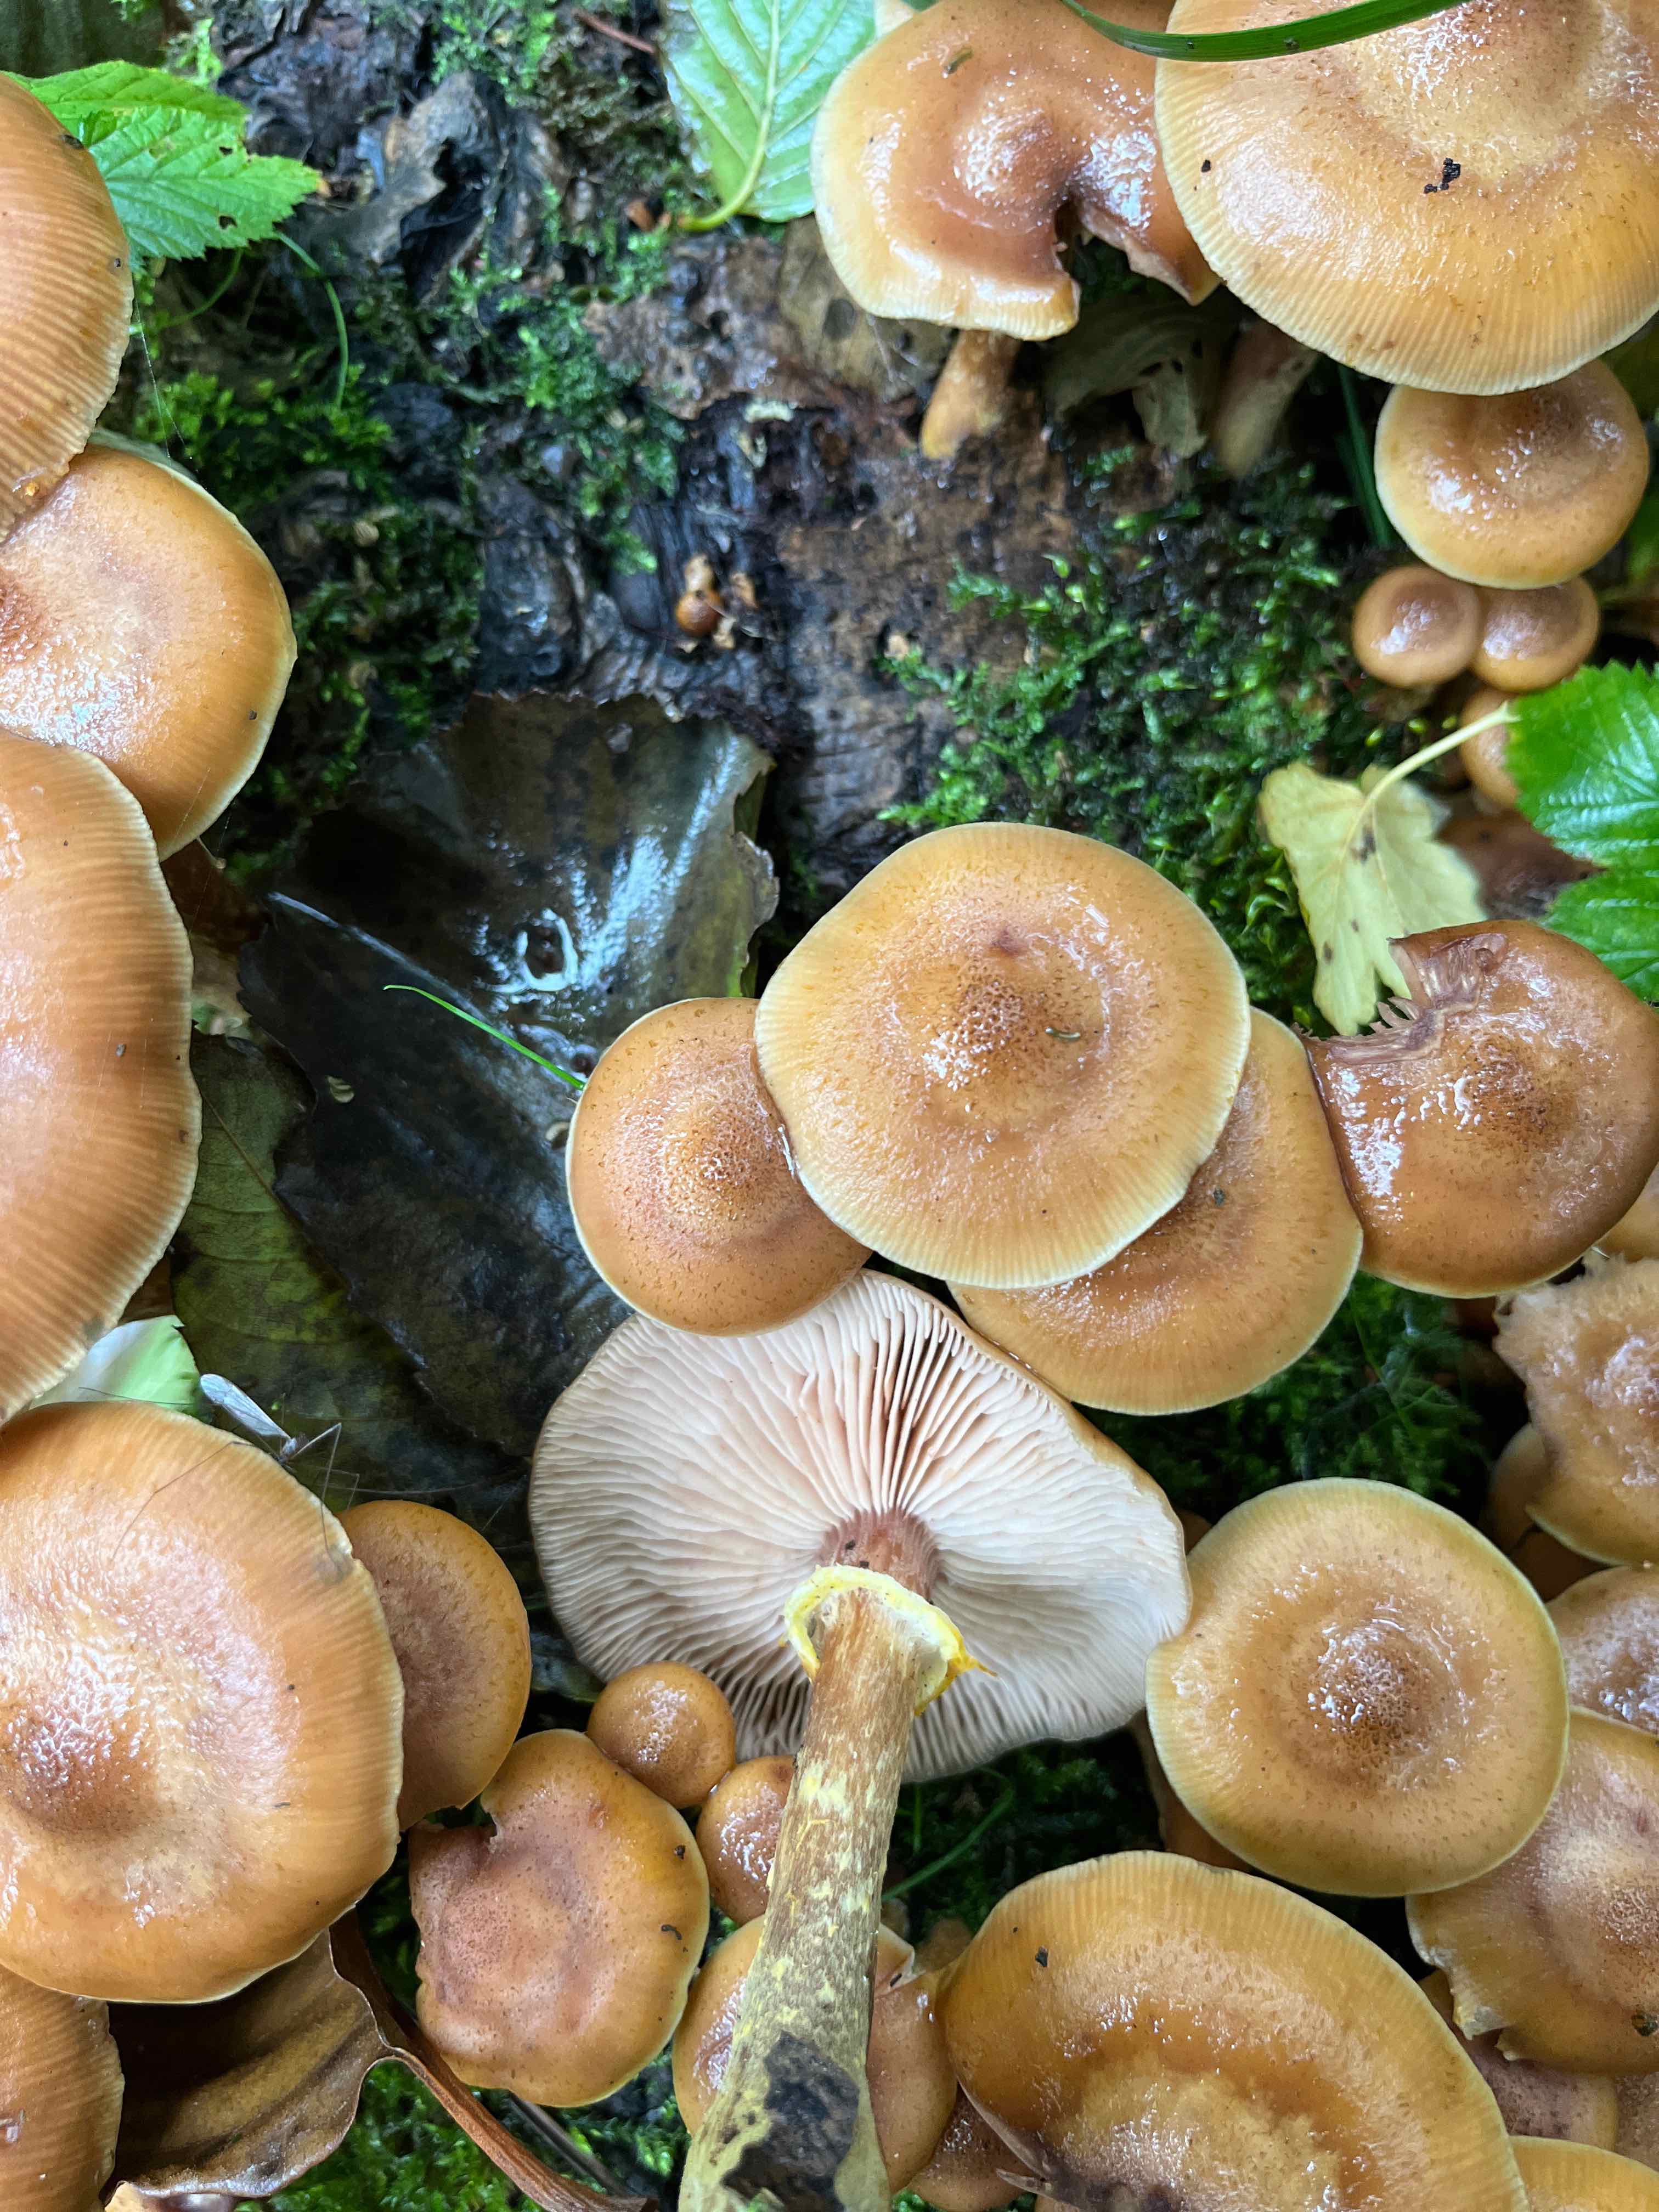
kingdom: Fungi
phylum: Basidiomycota
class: Agaricomycetes
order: Agaricales
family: Physalacriaceae
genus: Armillaria
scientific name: Armillaria lutea
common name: køllestokket honningsvamp
